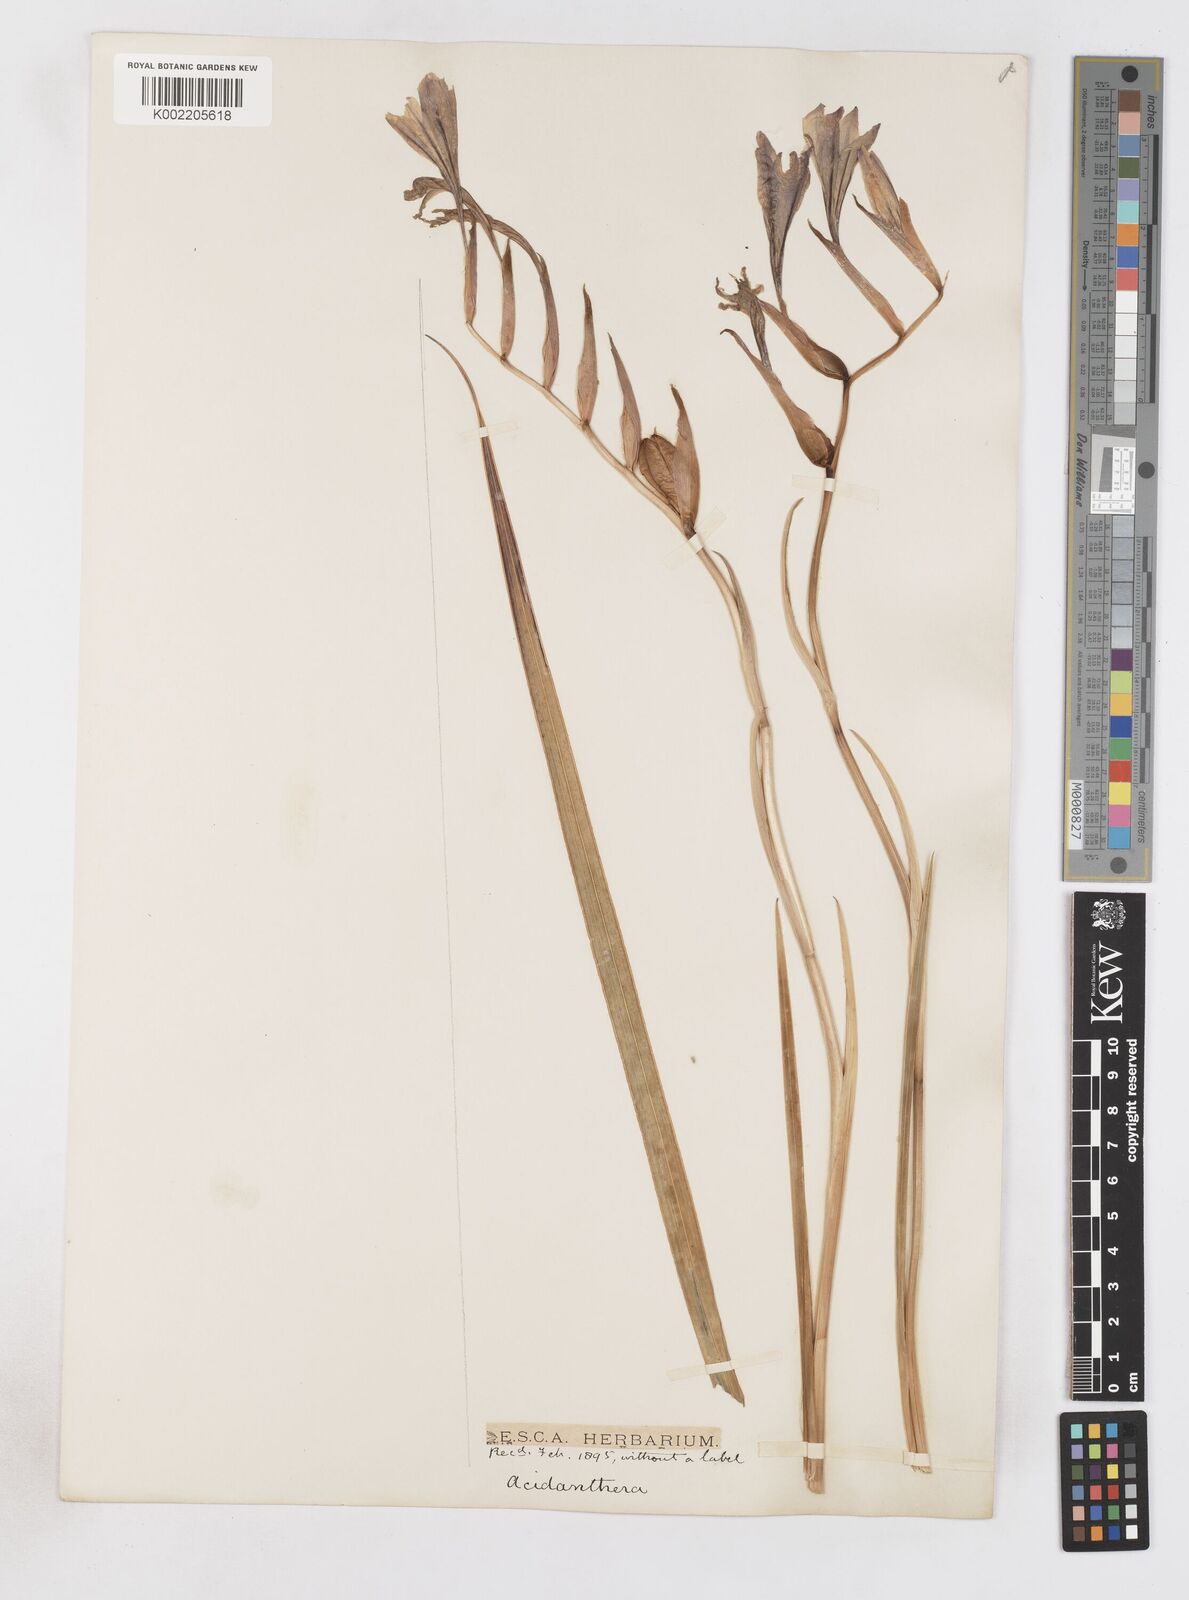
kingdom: Plantae
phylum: Tracheophyta
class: Liliopsida
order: Asparagales
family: Iridaceae
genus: Gladiolus
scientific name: Gladiolus floribundus
